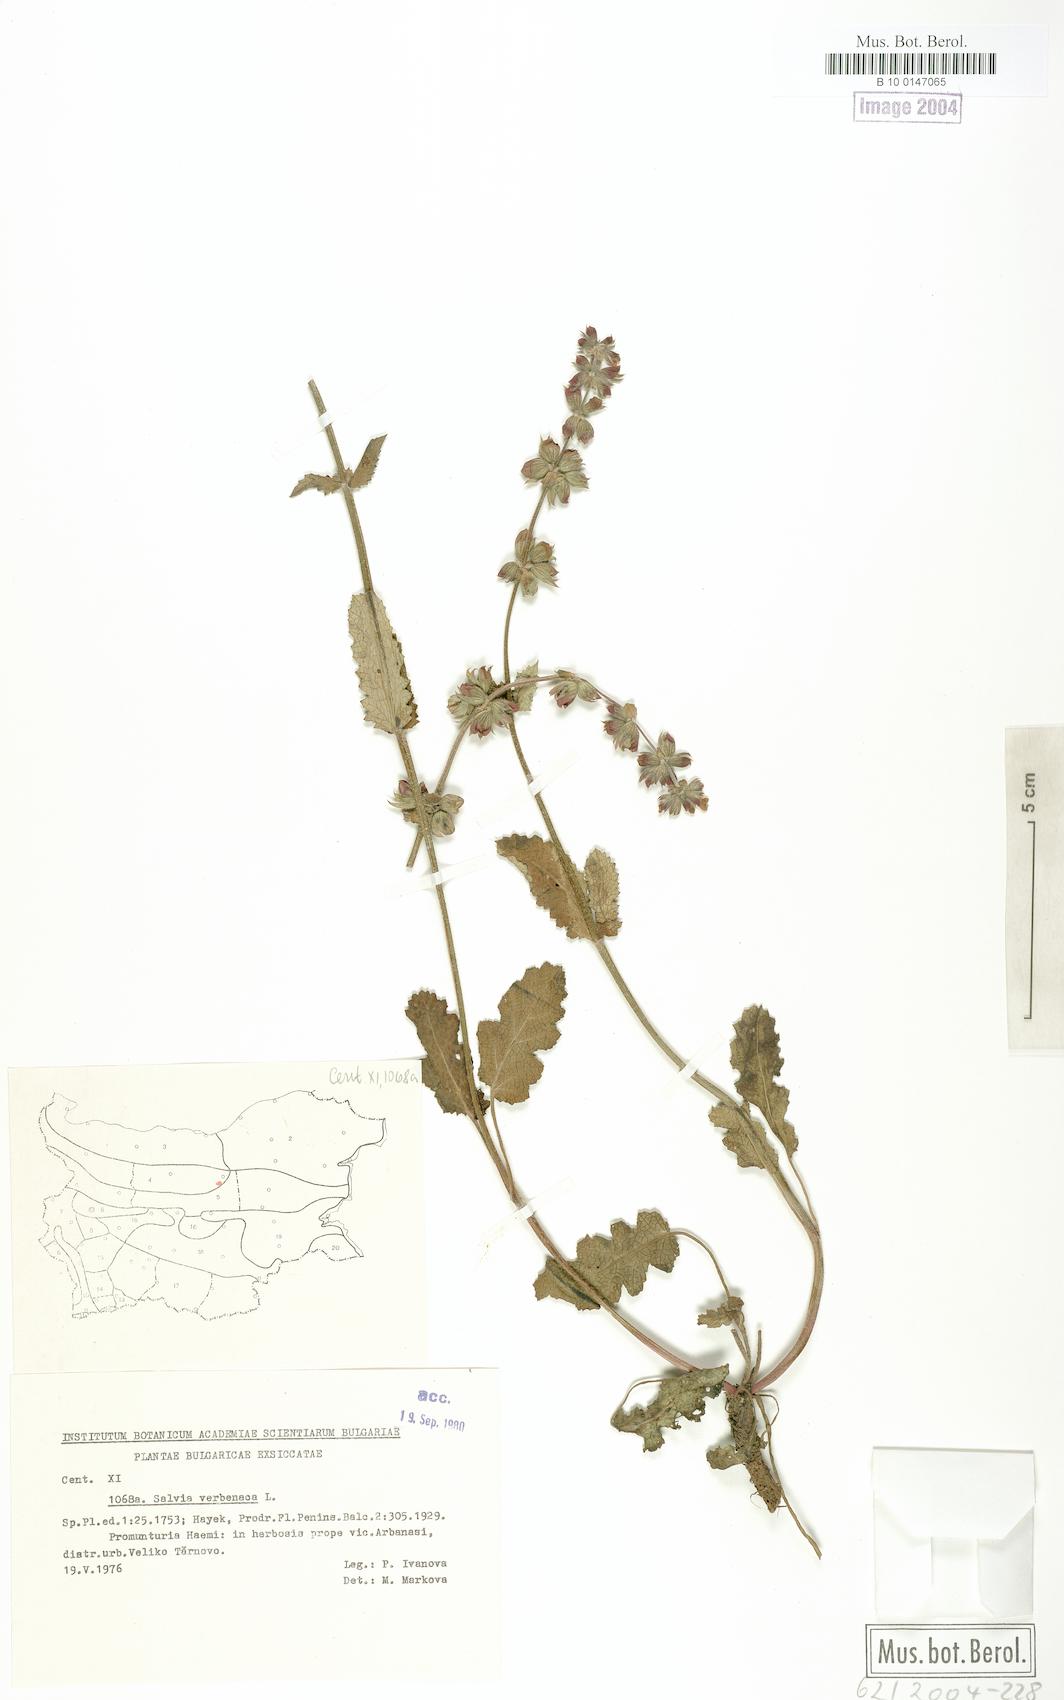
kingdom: Plantae
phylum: Tracheophyta
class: Magnoliopsida
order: Lamiales
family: Lamiaceae
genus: Salvia
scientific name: Salvia verbenaca
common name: Wild clary
